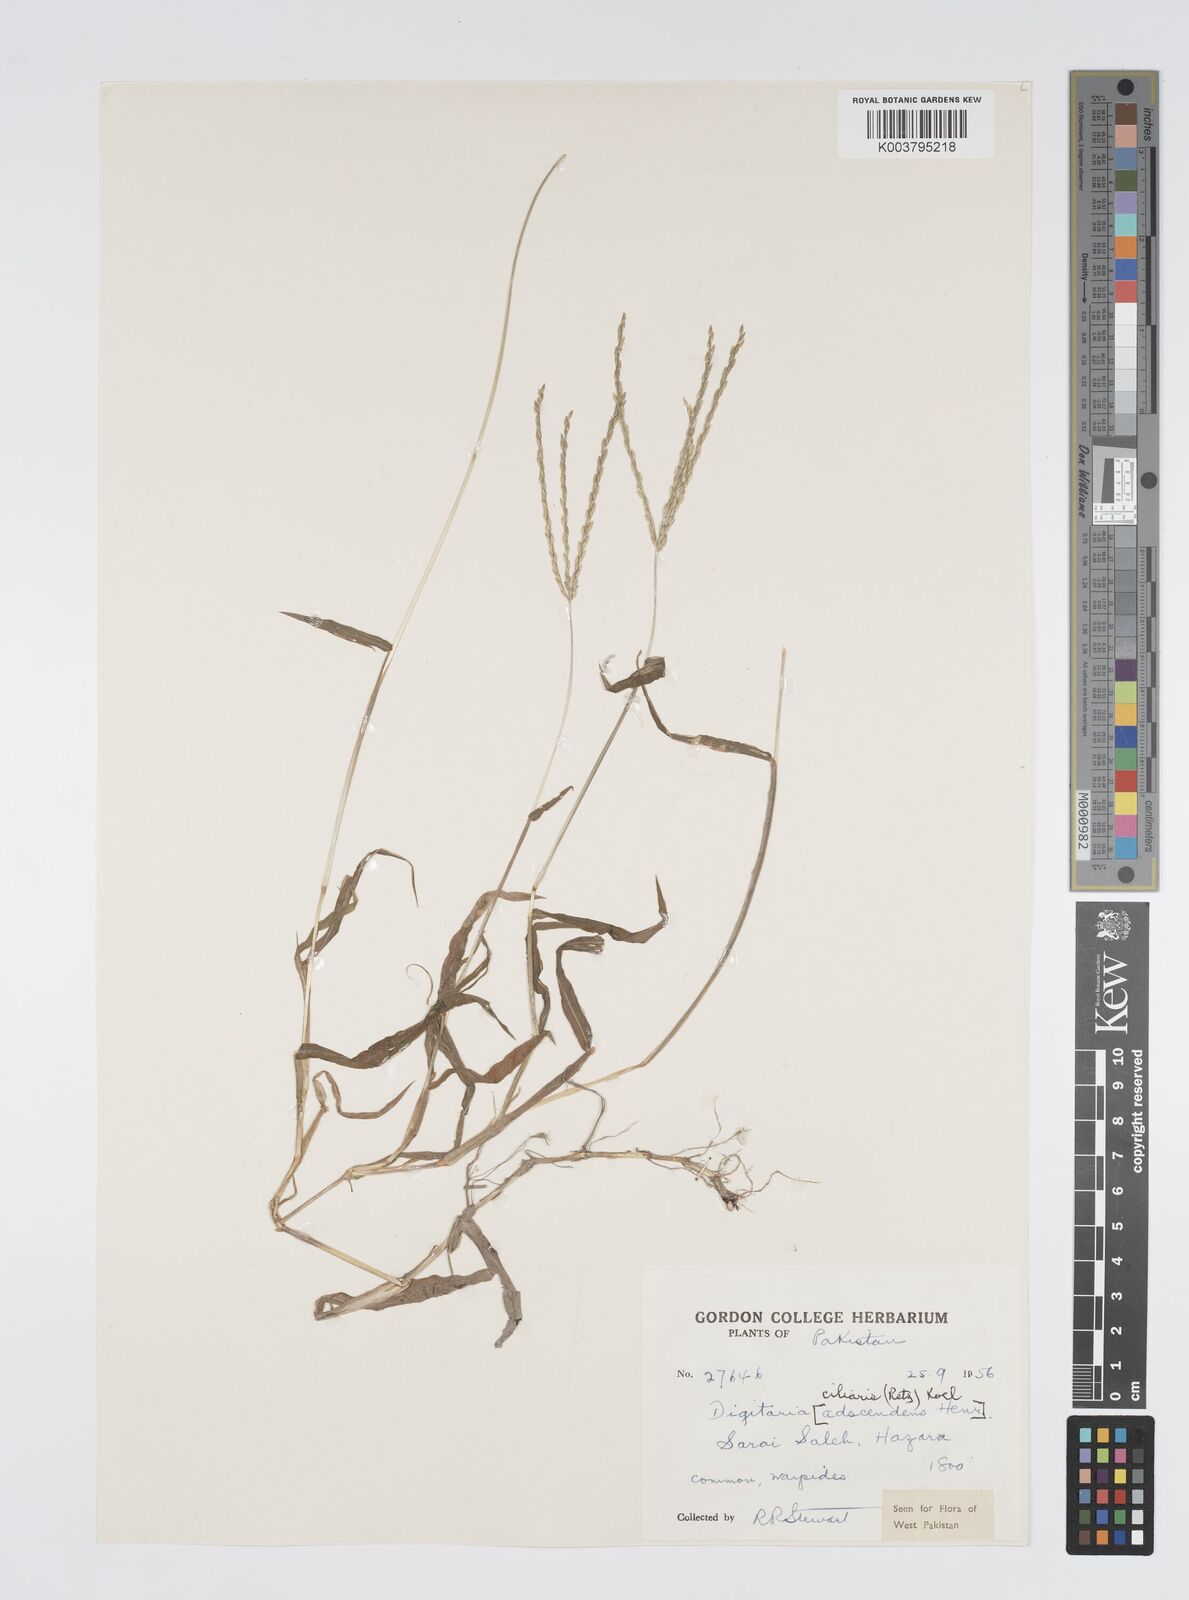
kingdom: Plantae
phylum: Tracheophyta
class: Liliopsida
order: Poales
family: Poaceae
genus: Digitaria
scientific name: Digitaria ciliaris
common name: Tropical finger-grass
